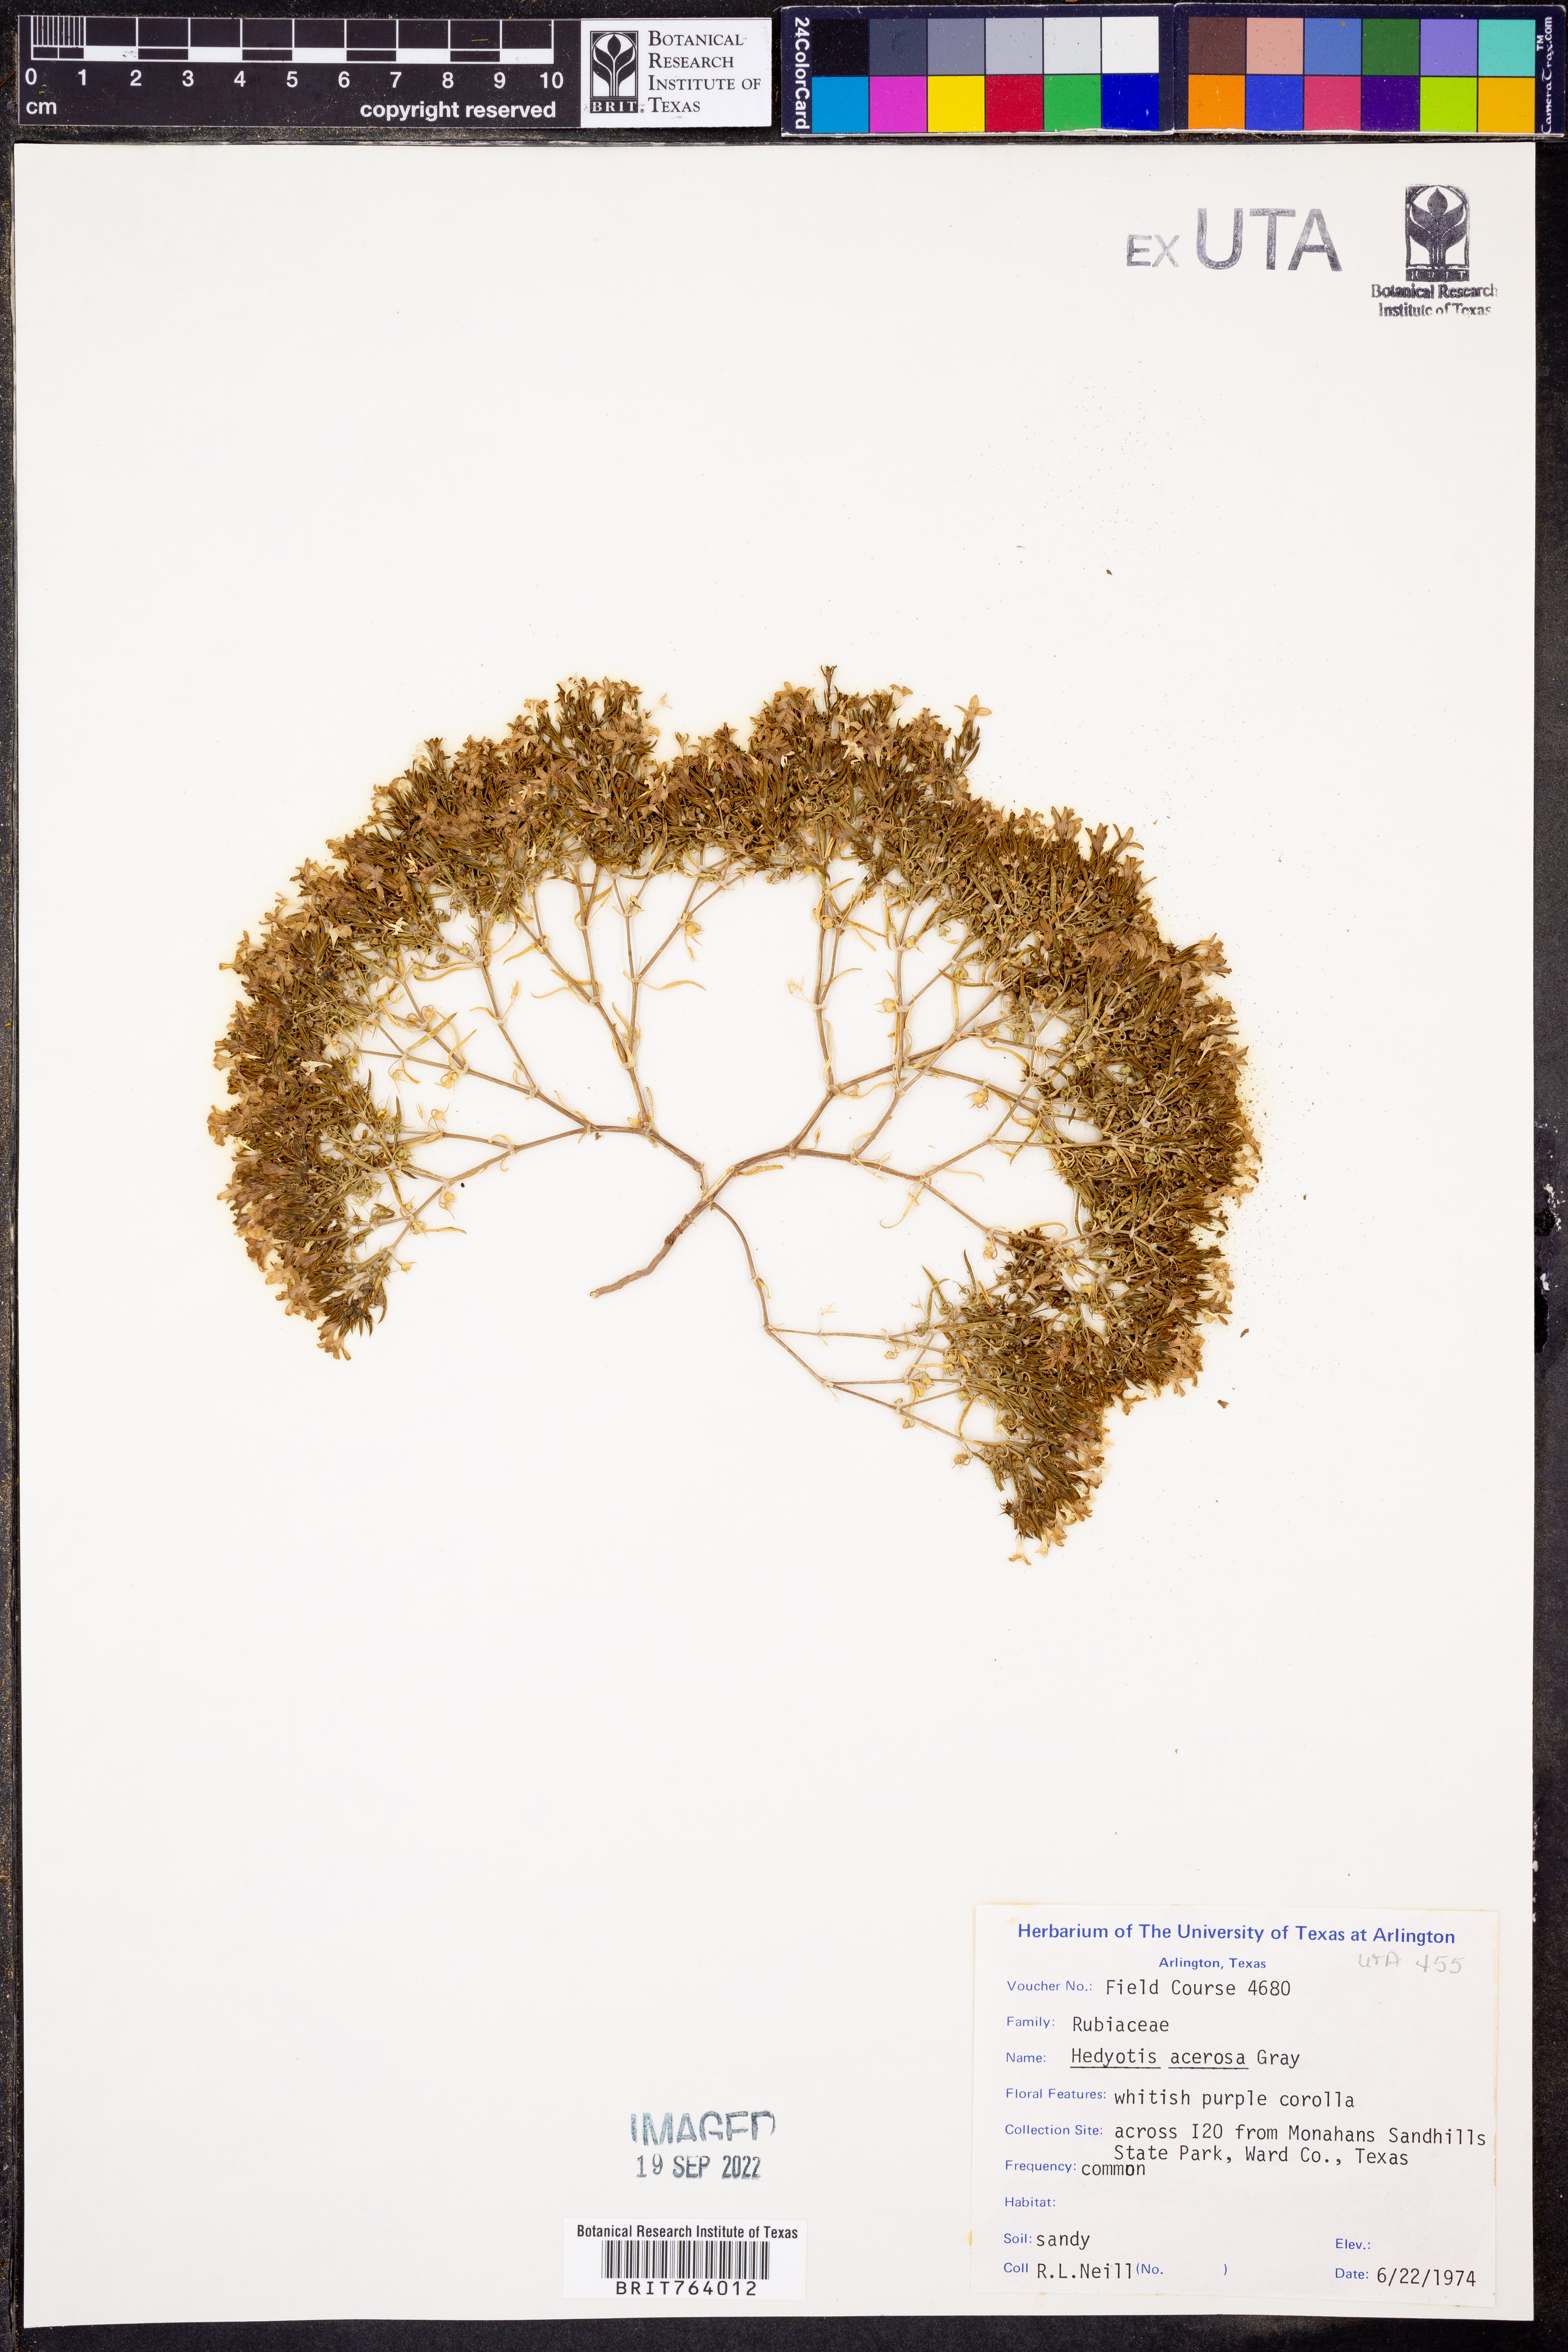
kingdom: Plantae
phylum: Tracheophyta
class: Magnoliopsida
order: Gentianales
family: Rubiaceae
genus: Houstonia
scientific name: Houstonia acerosa
